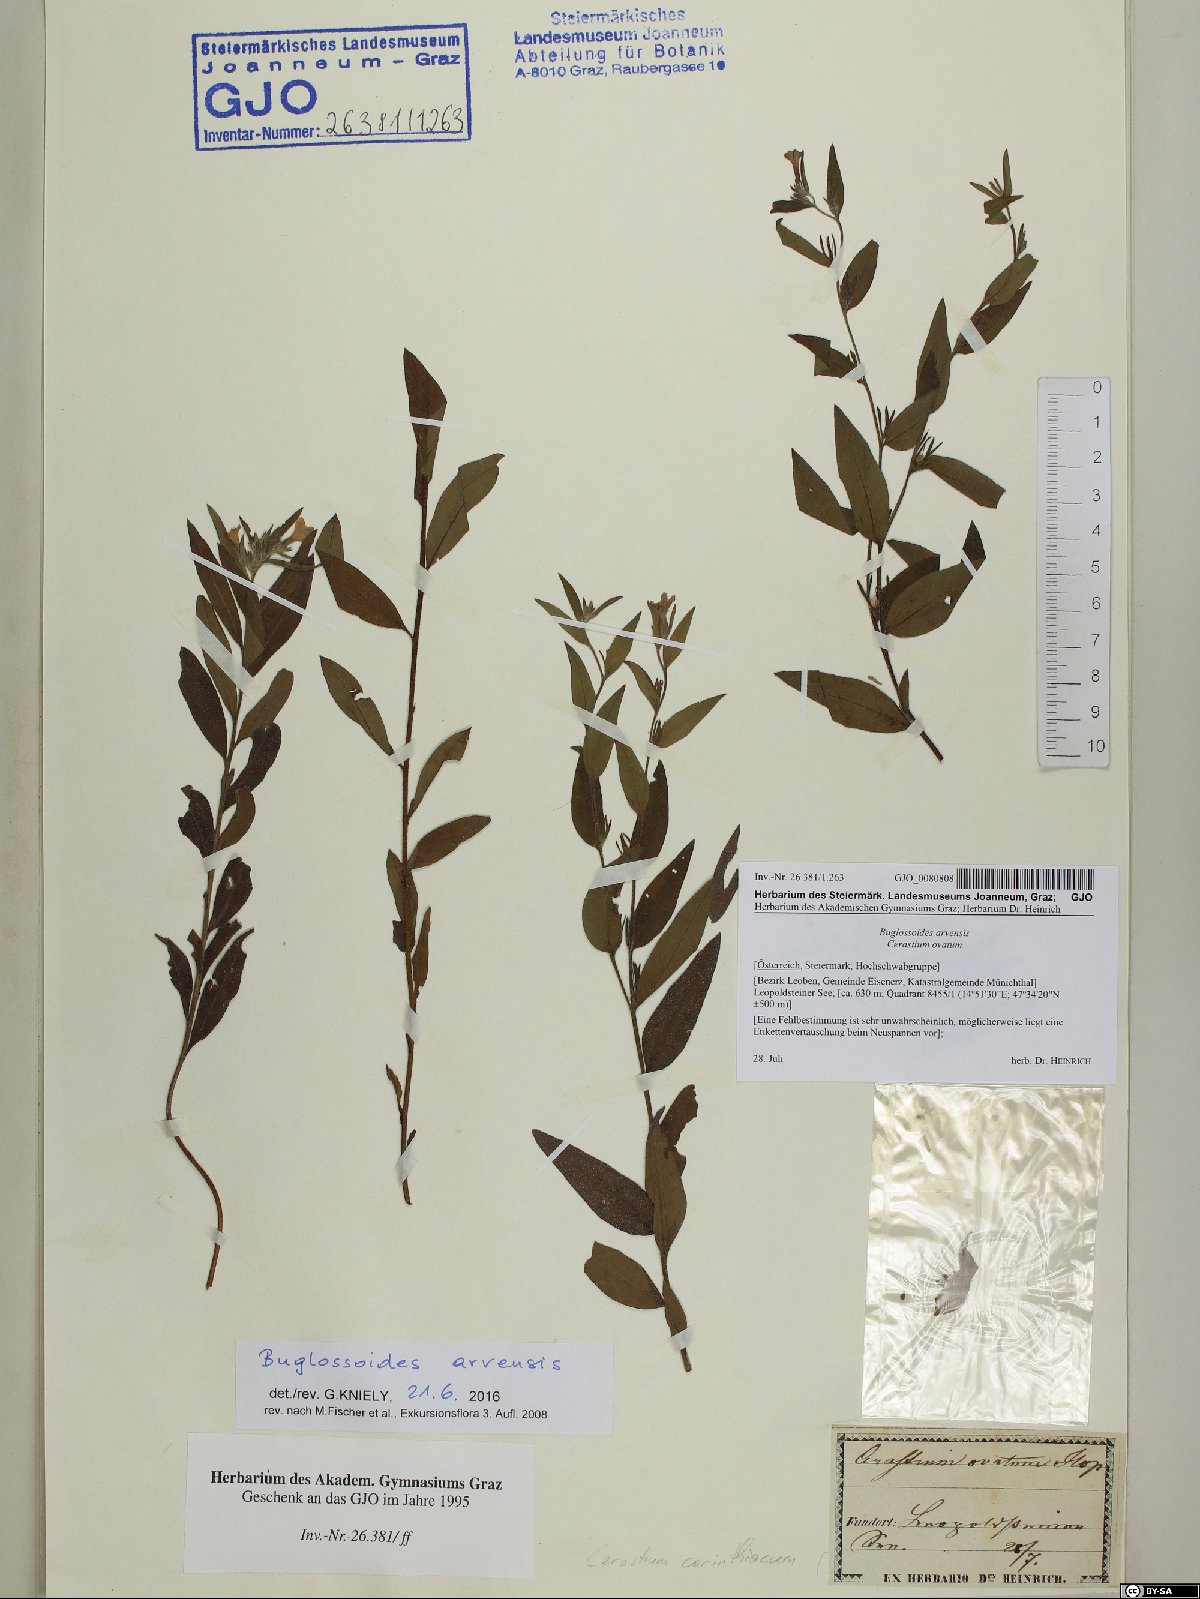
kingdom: Plantae
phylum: Tracheophyta
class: Magnoliopsida
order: Boraginales
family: Boraginaceae
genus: Buglossoides
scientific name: Buglossoides arvensis
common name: Corn gromwell
